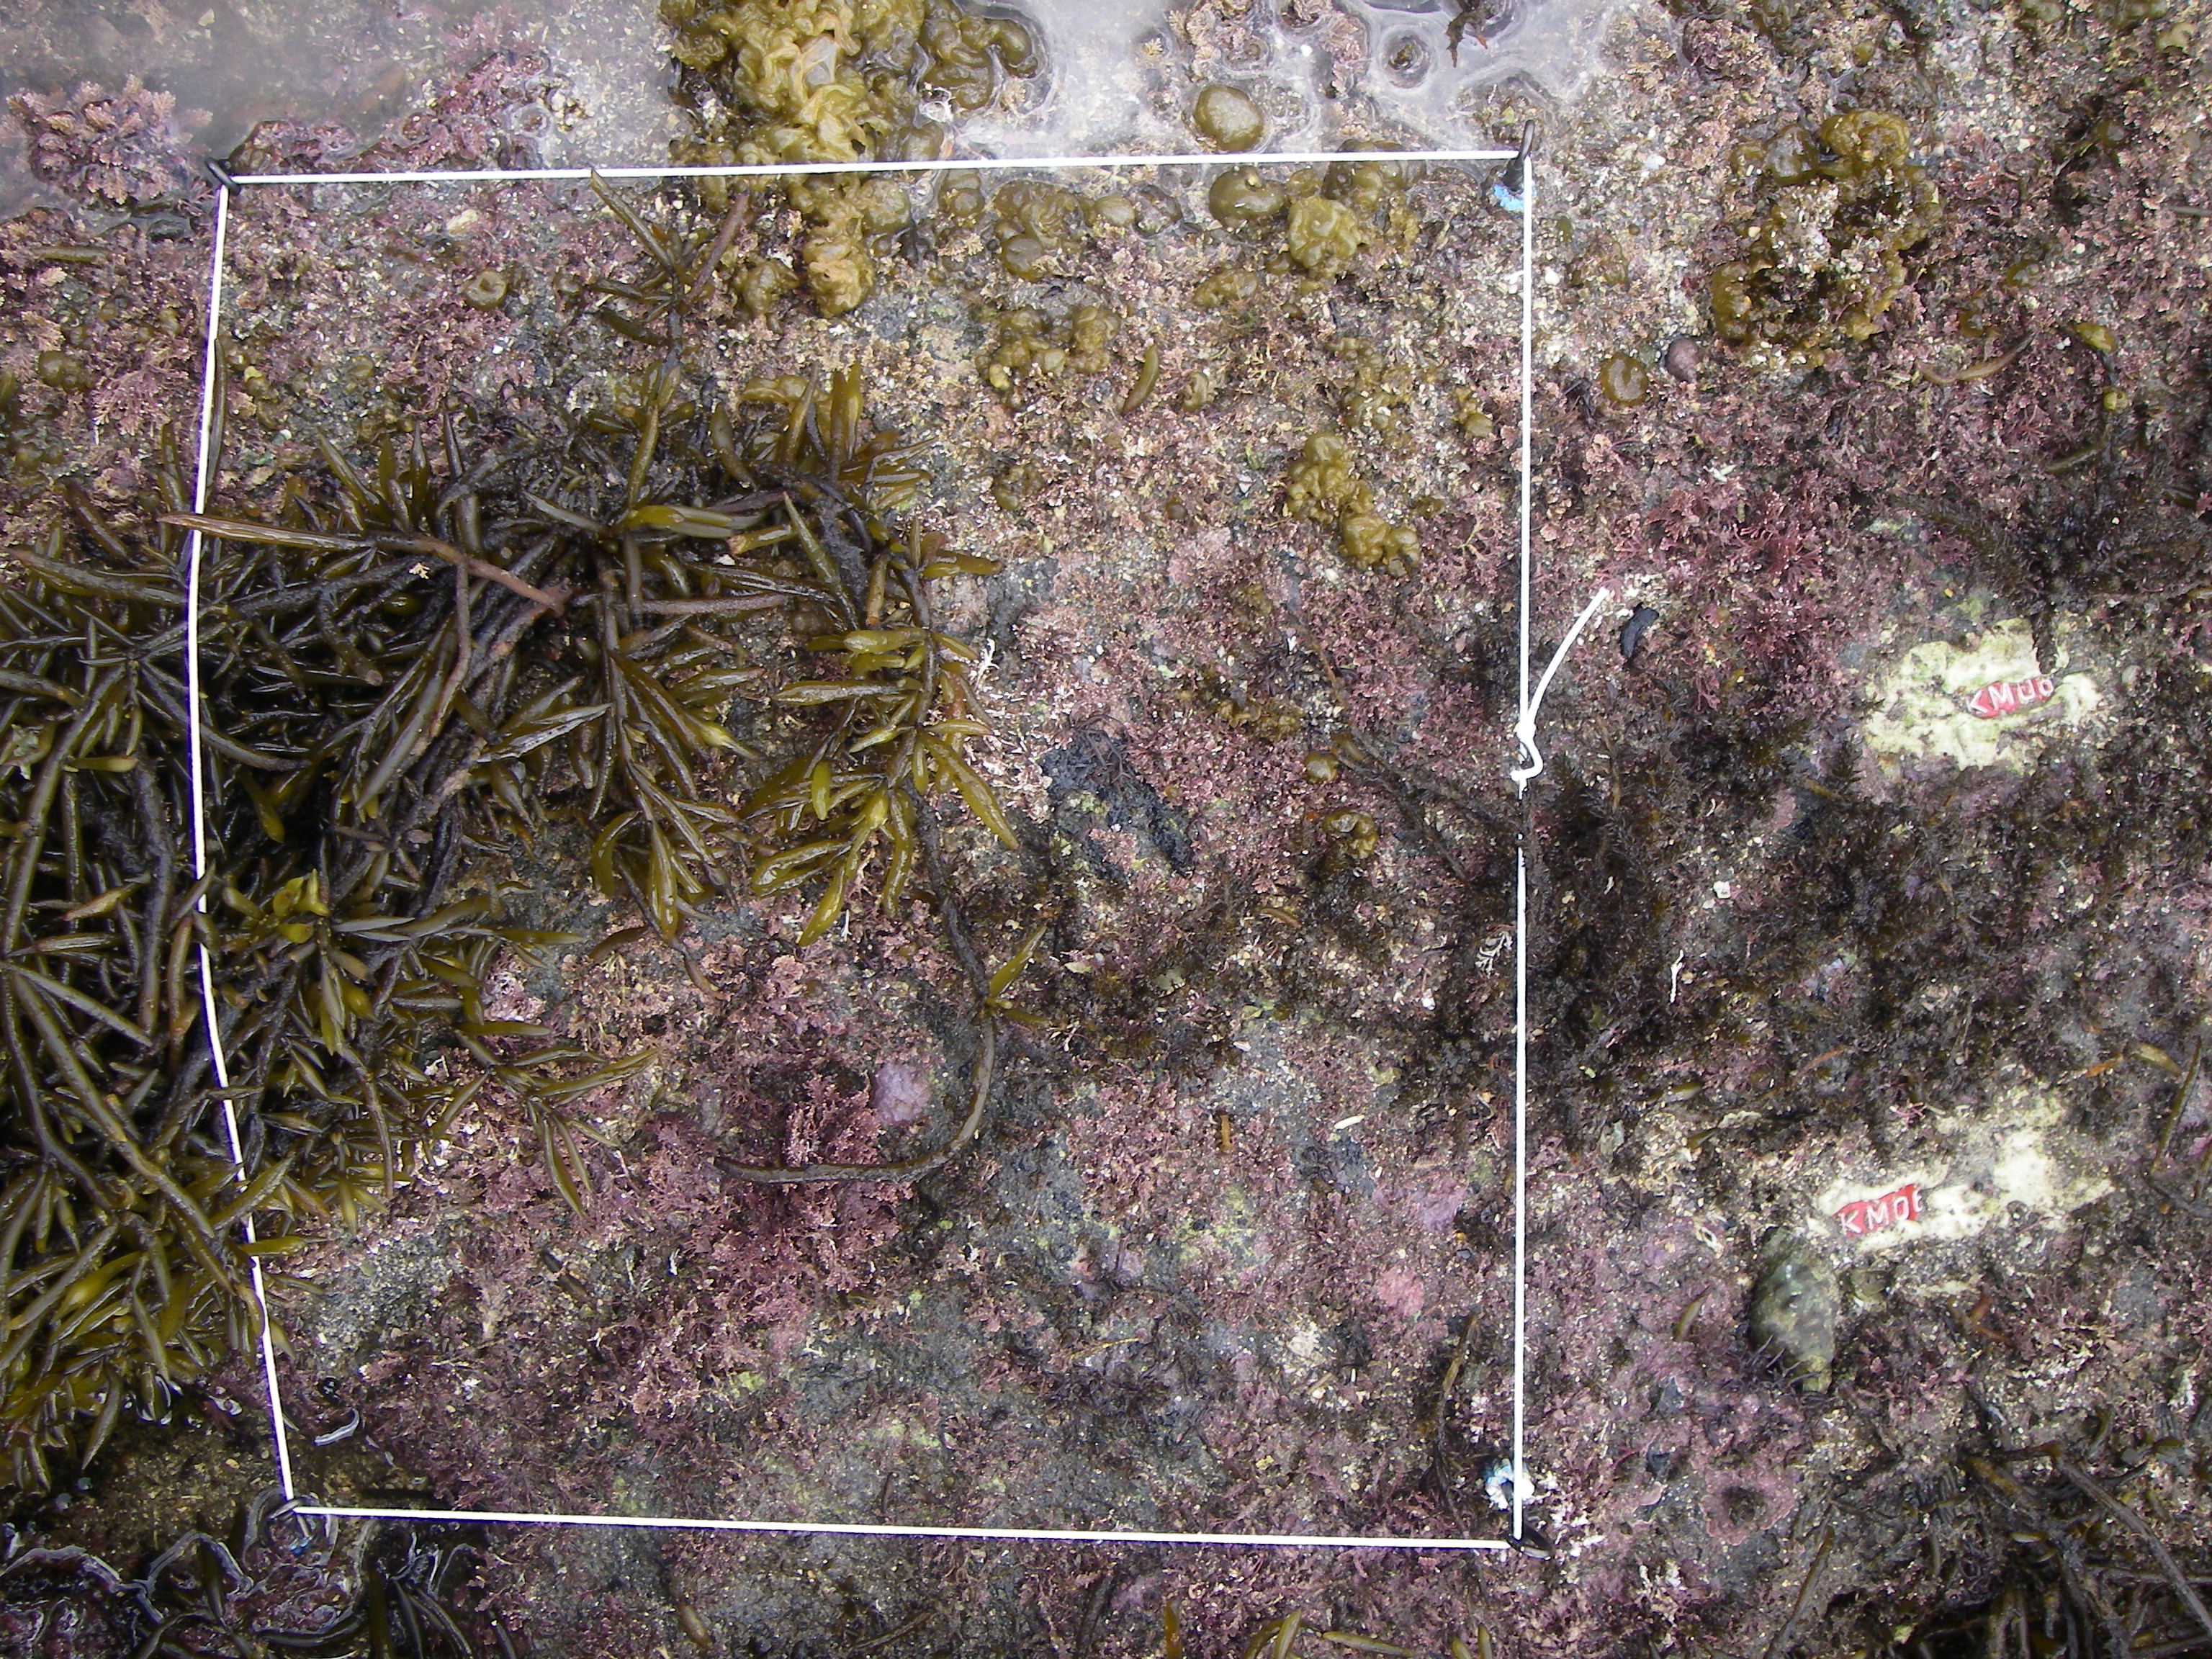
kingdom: Chromista
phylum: Ochrophyta
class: Phaeophyceae
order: Fucales
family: Sargassaceae
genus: Sargassum
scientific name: Sargassum fusiforme
